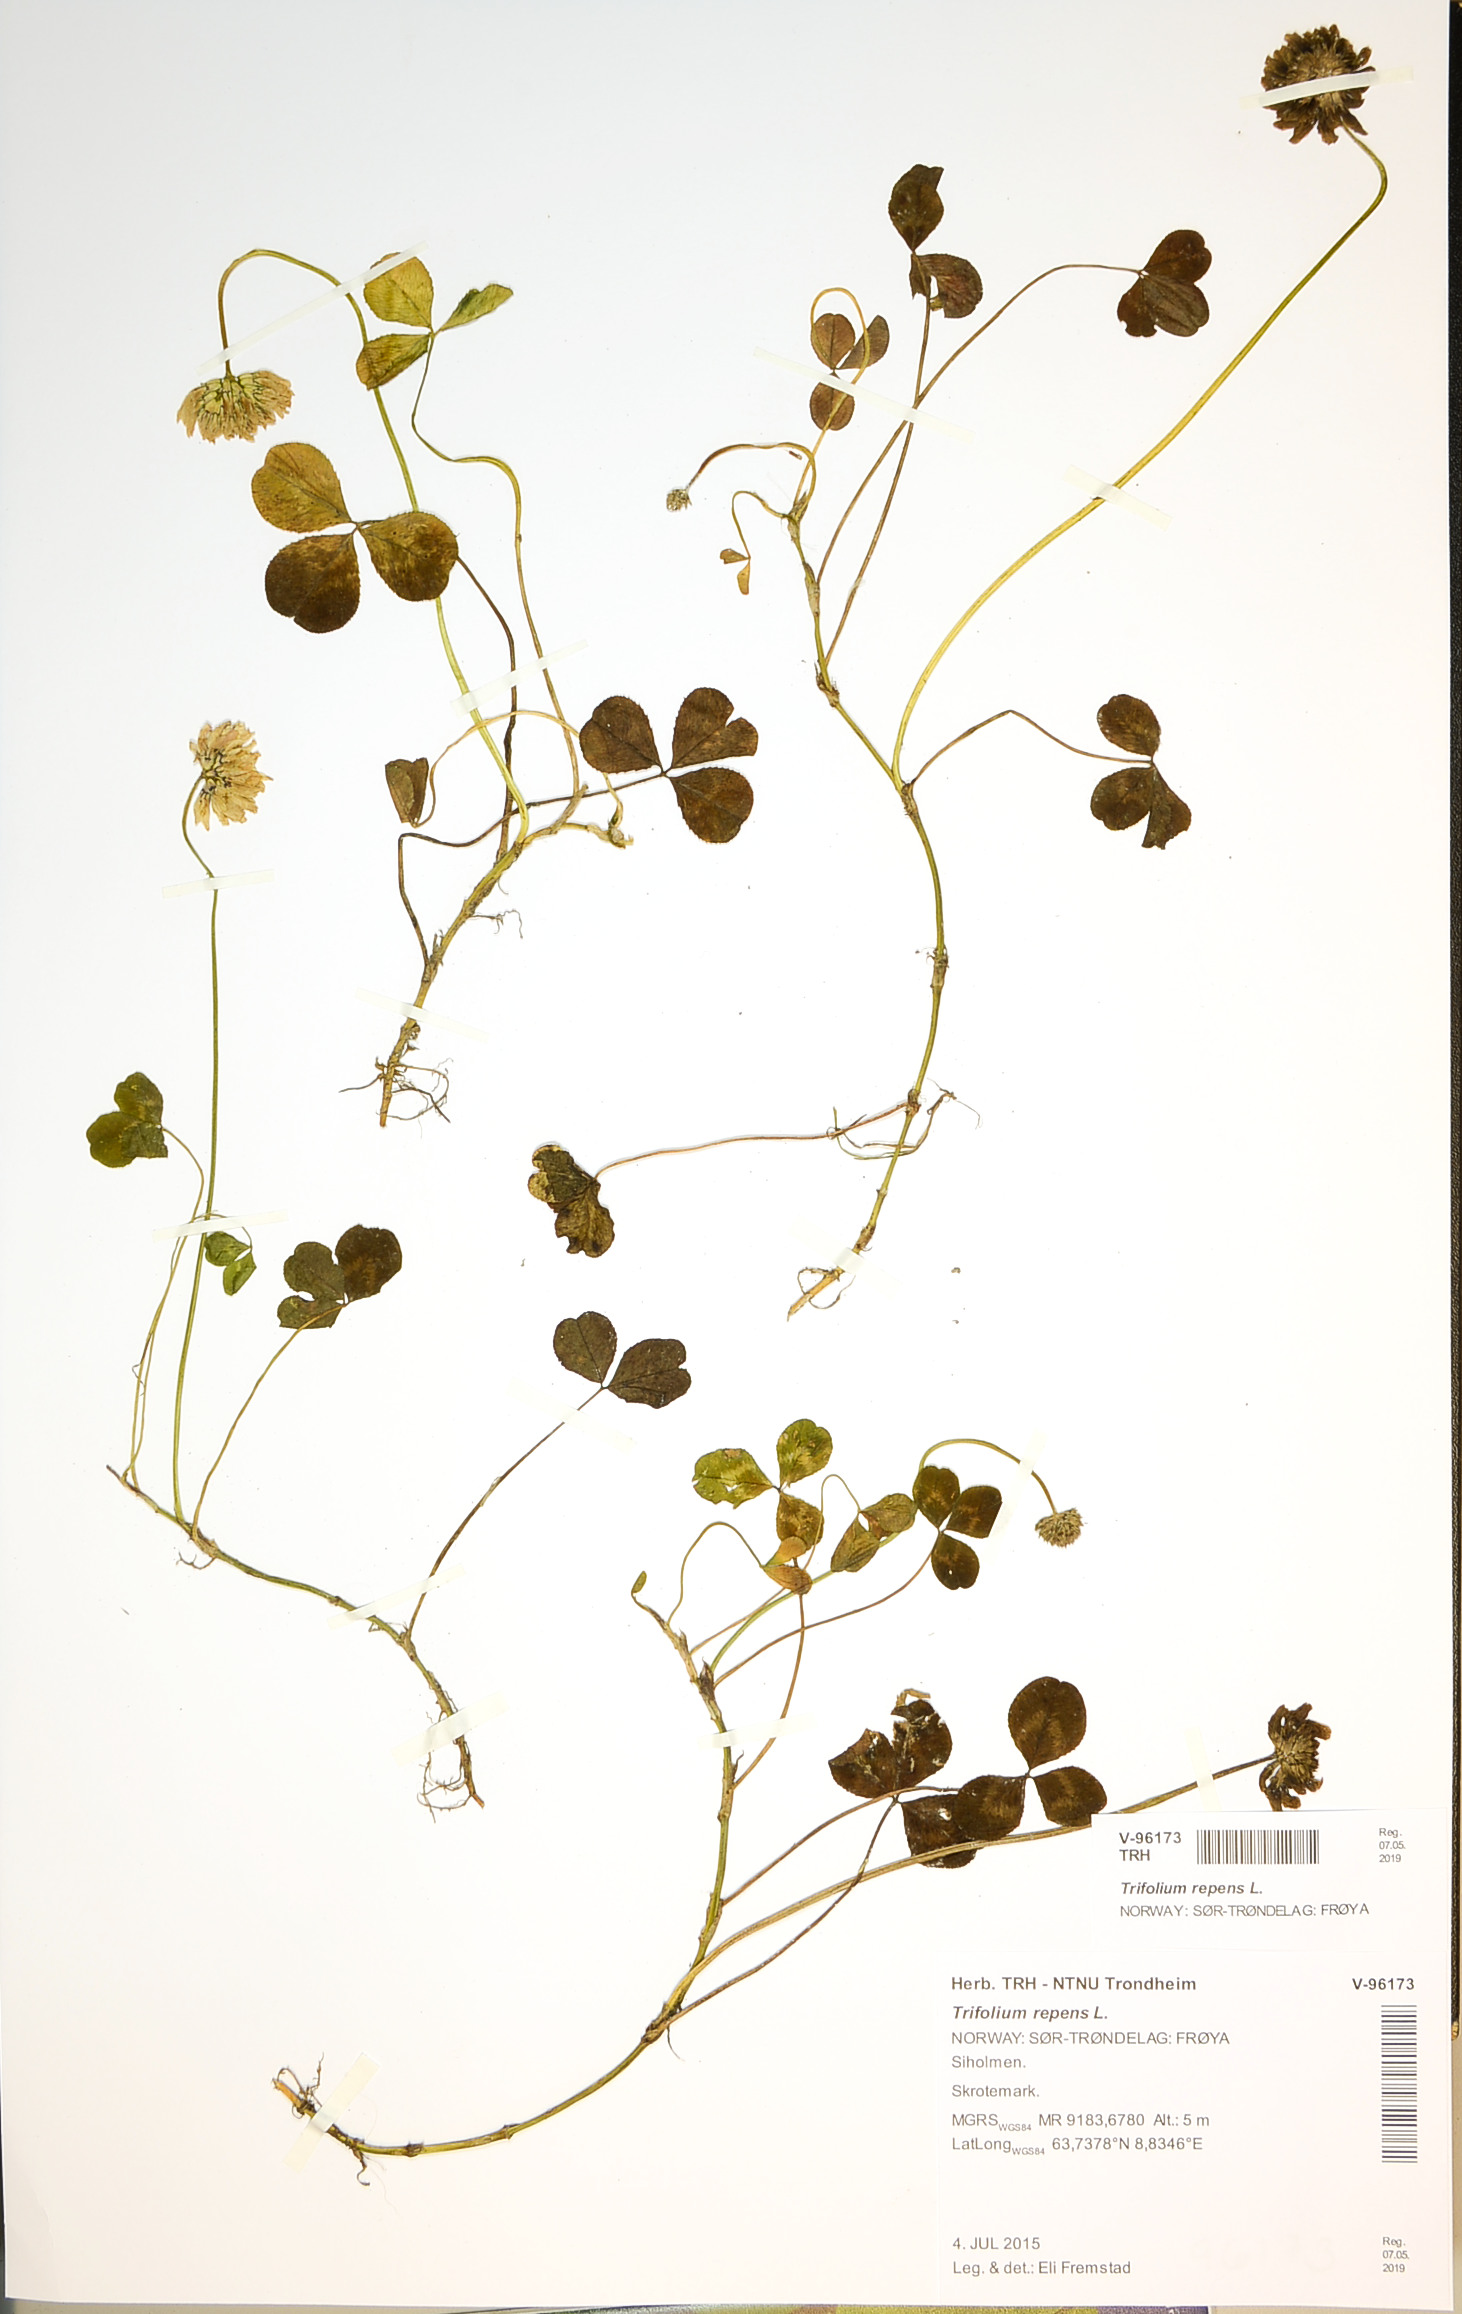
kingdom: Plantae
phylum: Tracheophyta
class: Magnoliopsida
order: Fabales
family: Fabaceae
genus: Trifolium
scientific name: Trifolium repens
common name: White clover
